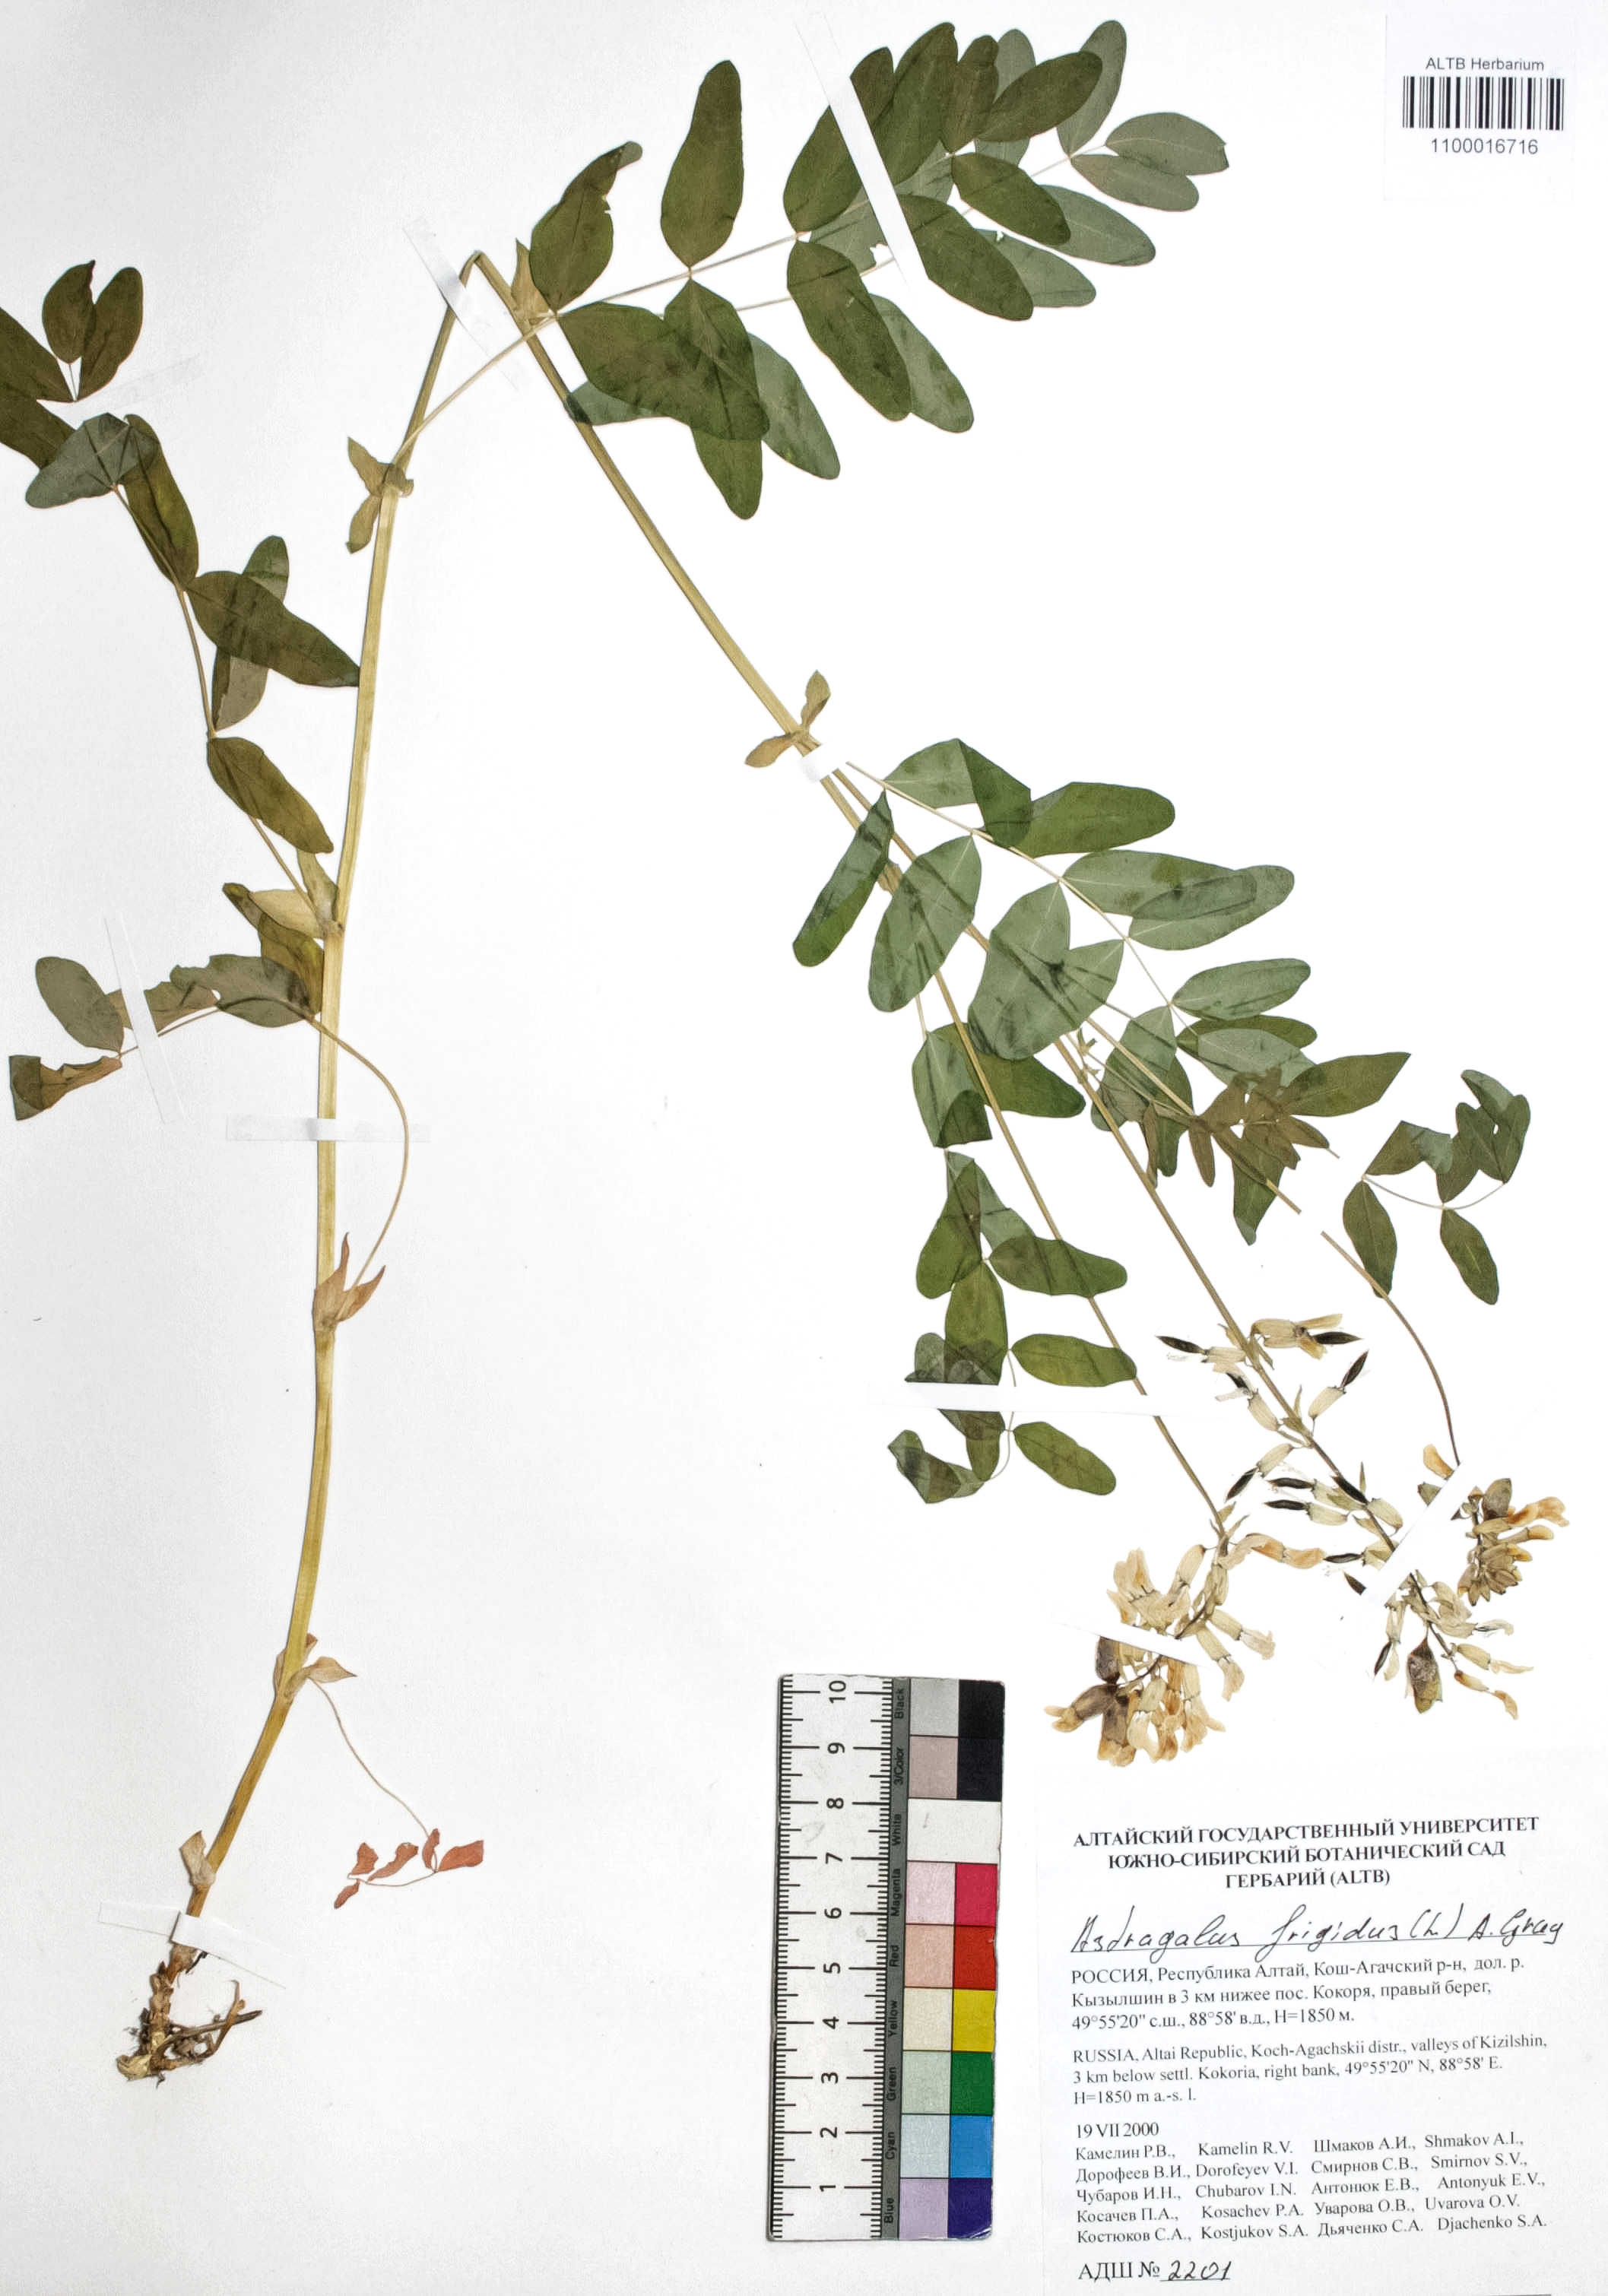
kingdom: Plantae
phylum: Tracheophyta
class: Magnoliopsida
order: Fabales
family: Fabaceae
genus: Astragalus
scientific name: Astragalus frigidus
